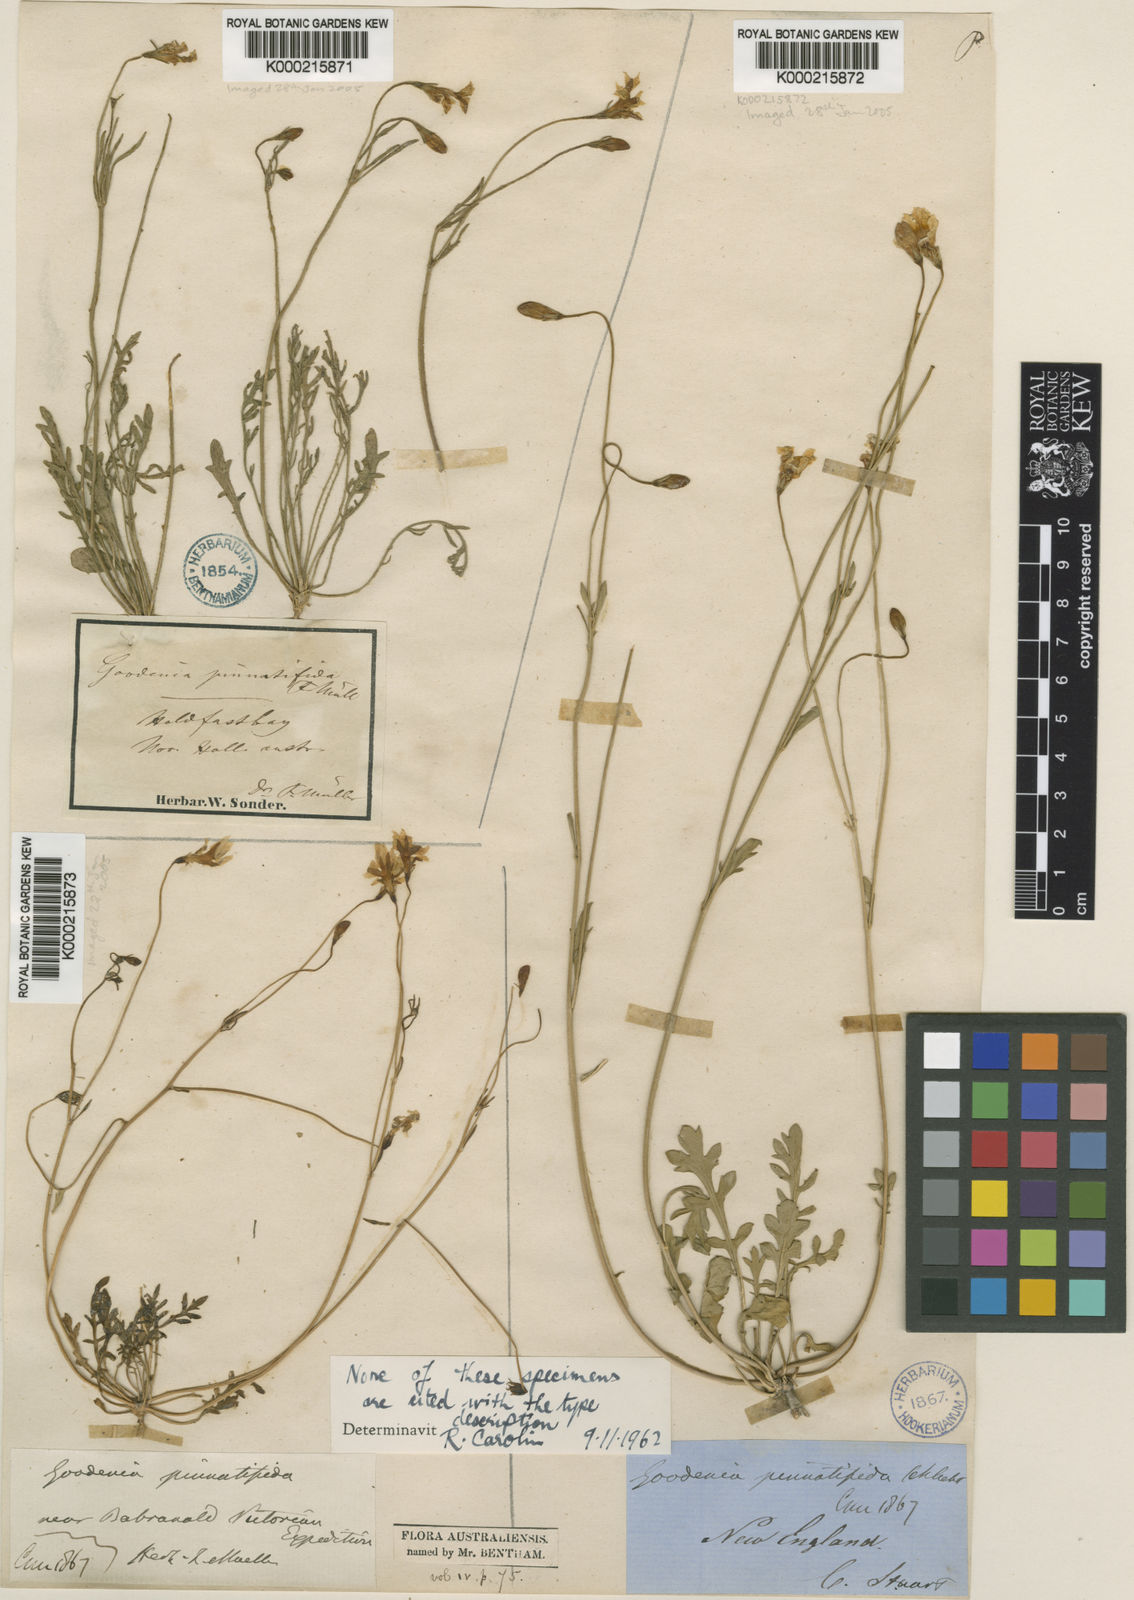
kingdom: Plantae
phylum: Tracheophyta
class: Magnoliopsida
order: Asterales
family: Goodeniaceae
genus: Goodenia
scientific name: Goodenia pinnatifida
